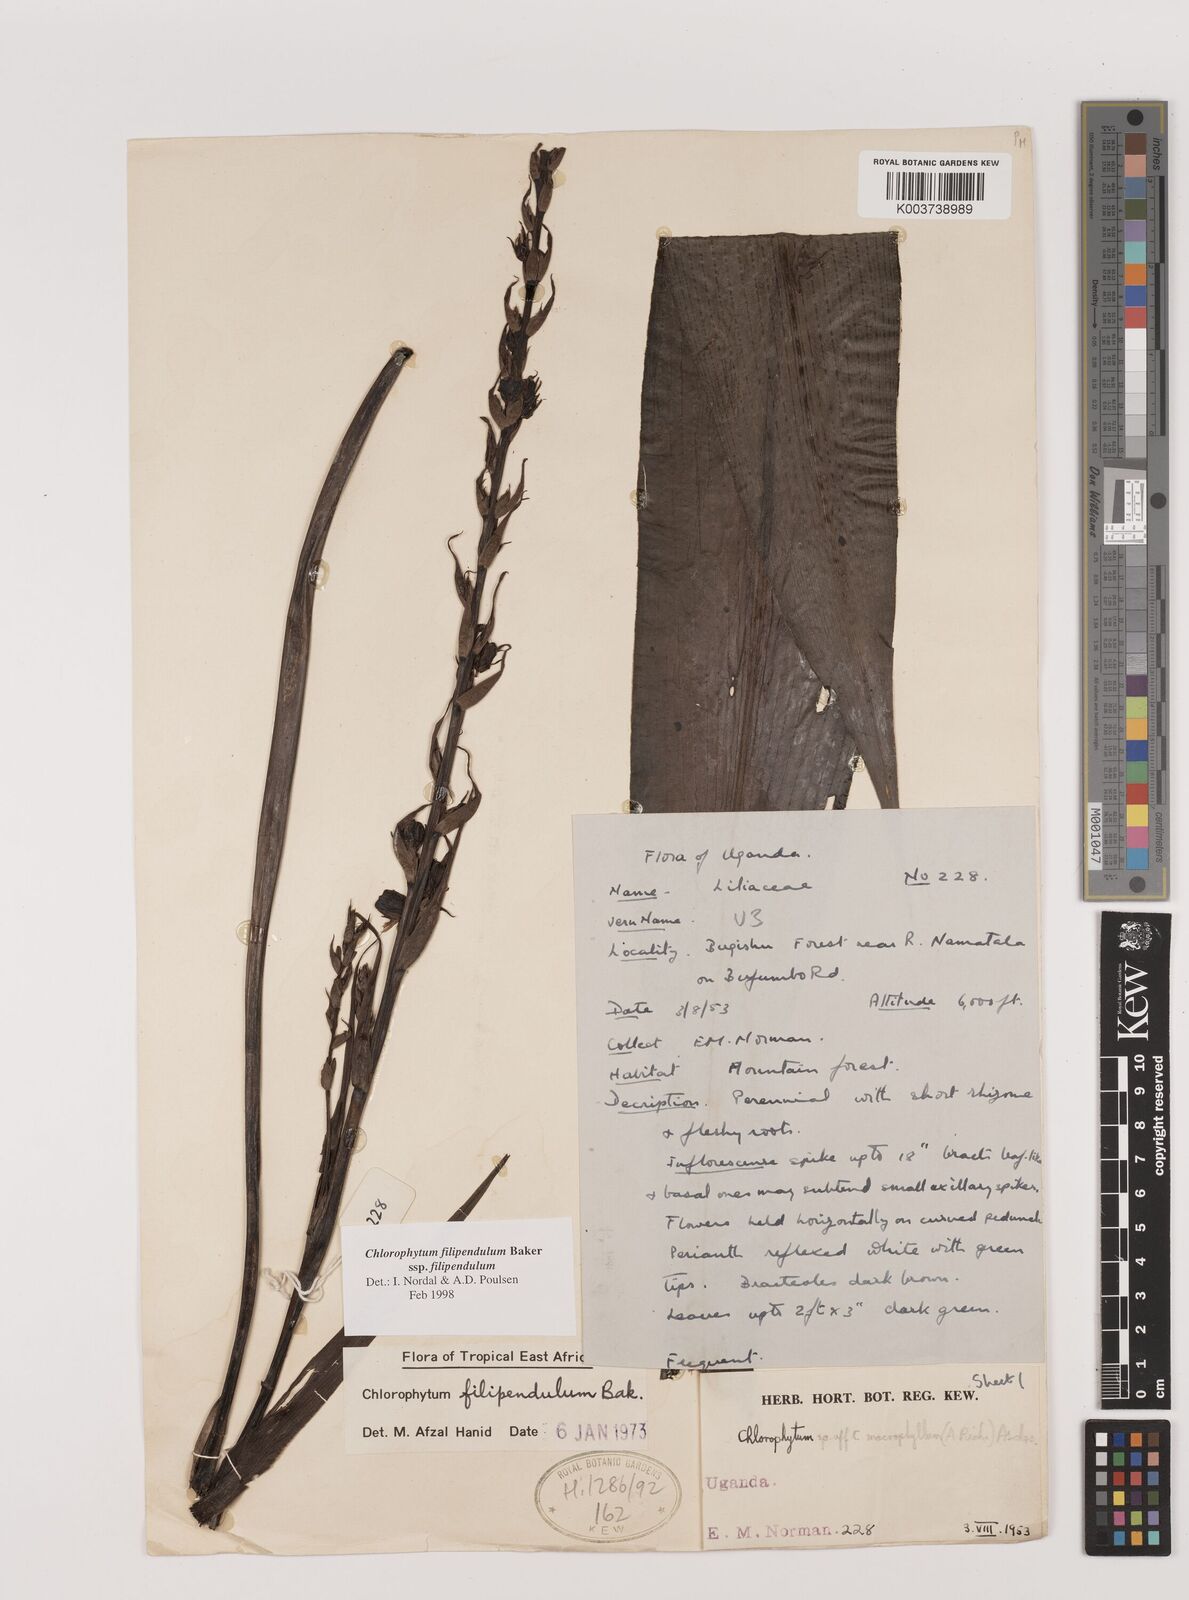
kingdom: Plantae
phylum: Tracheophyta
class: Liliopsida
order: Asparagales
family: Asparagaceae
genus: Chlorophytum
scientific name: Chlorophytum filipendulum
